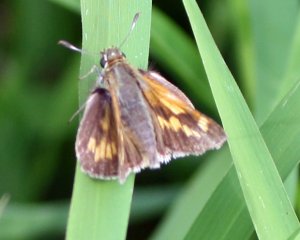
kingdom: Animalia
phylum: Arthropoda
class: Insecta
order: Lepidoptera
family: Hesperiidae
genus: Polites
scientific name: Polites
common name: Long Dash Skipper
